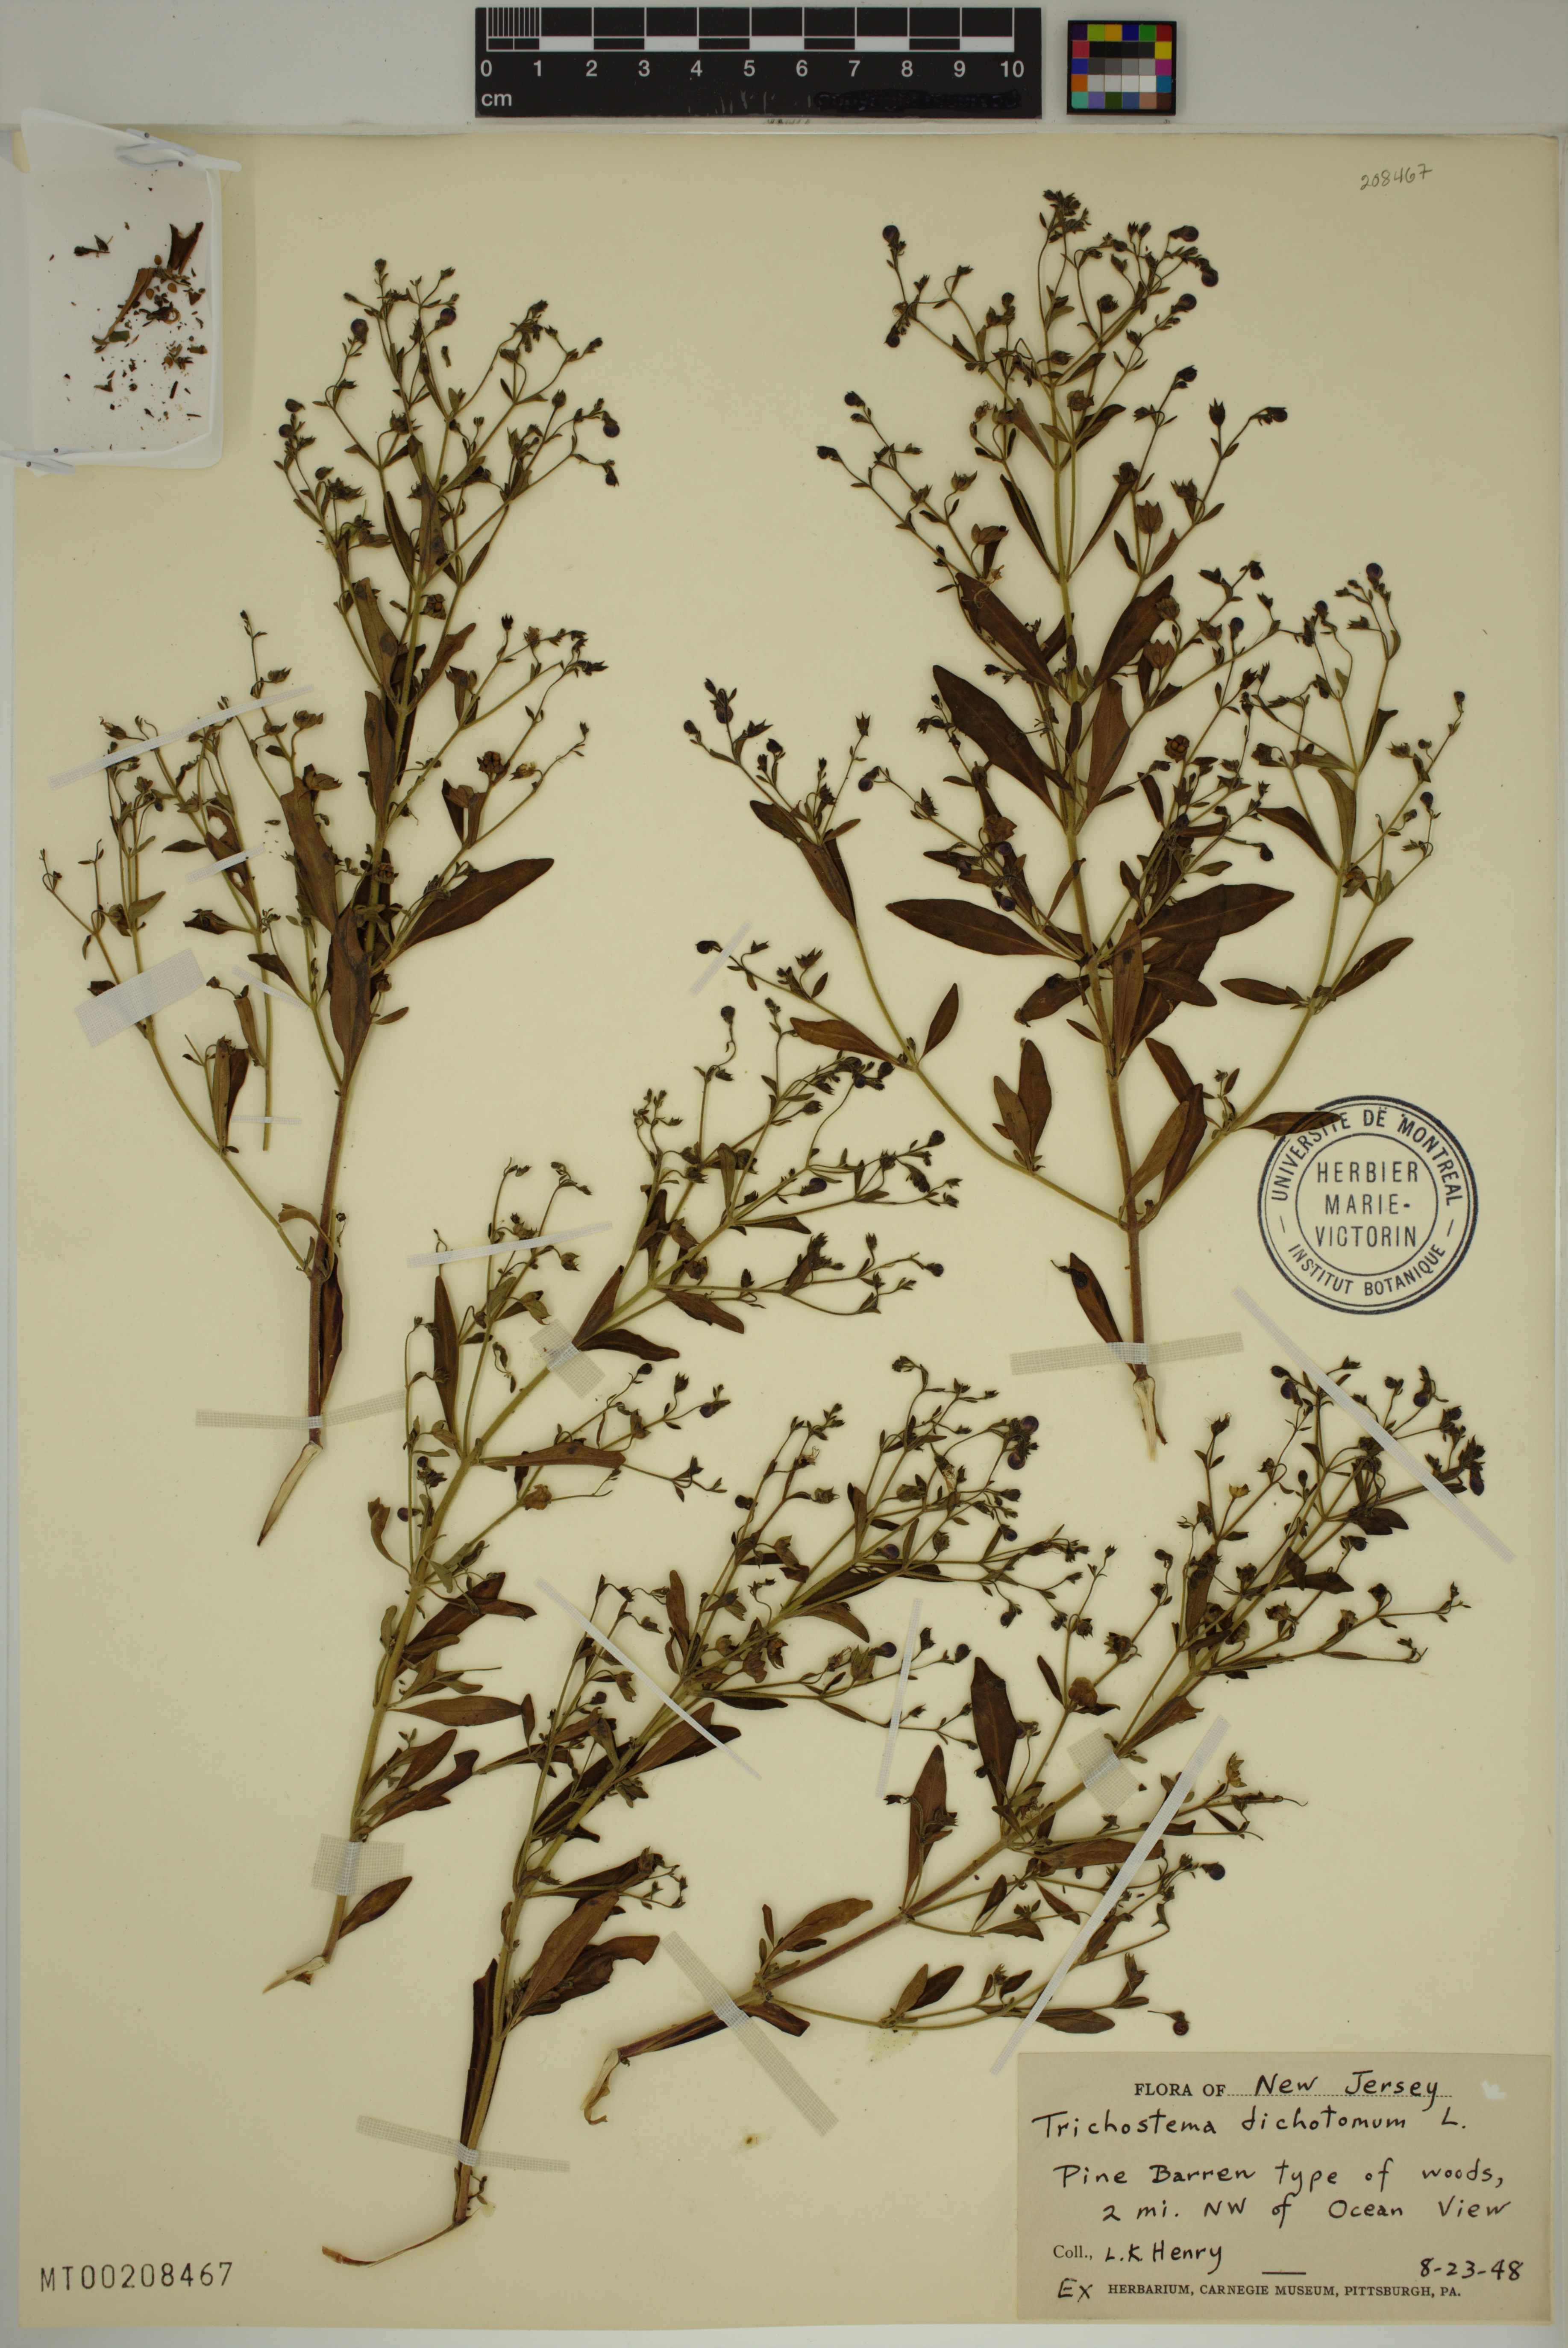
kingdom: Plantae
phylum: Tracheophyta
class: Magnoliopsida
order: Lamiales
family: Lamiaceae
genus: Trichostema
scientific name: Trichostema dichotomum
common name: Bastard pennyroyal
